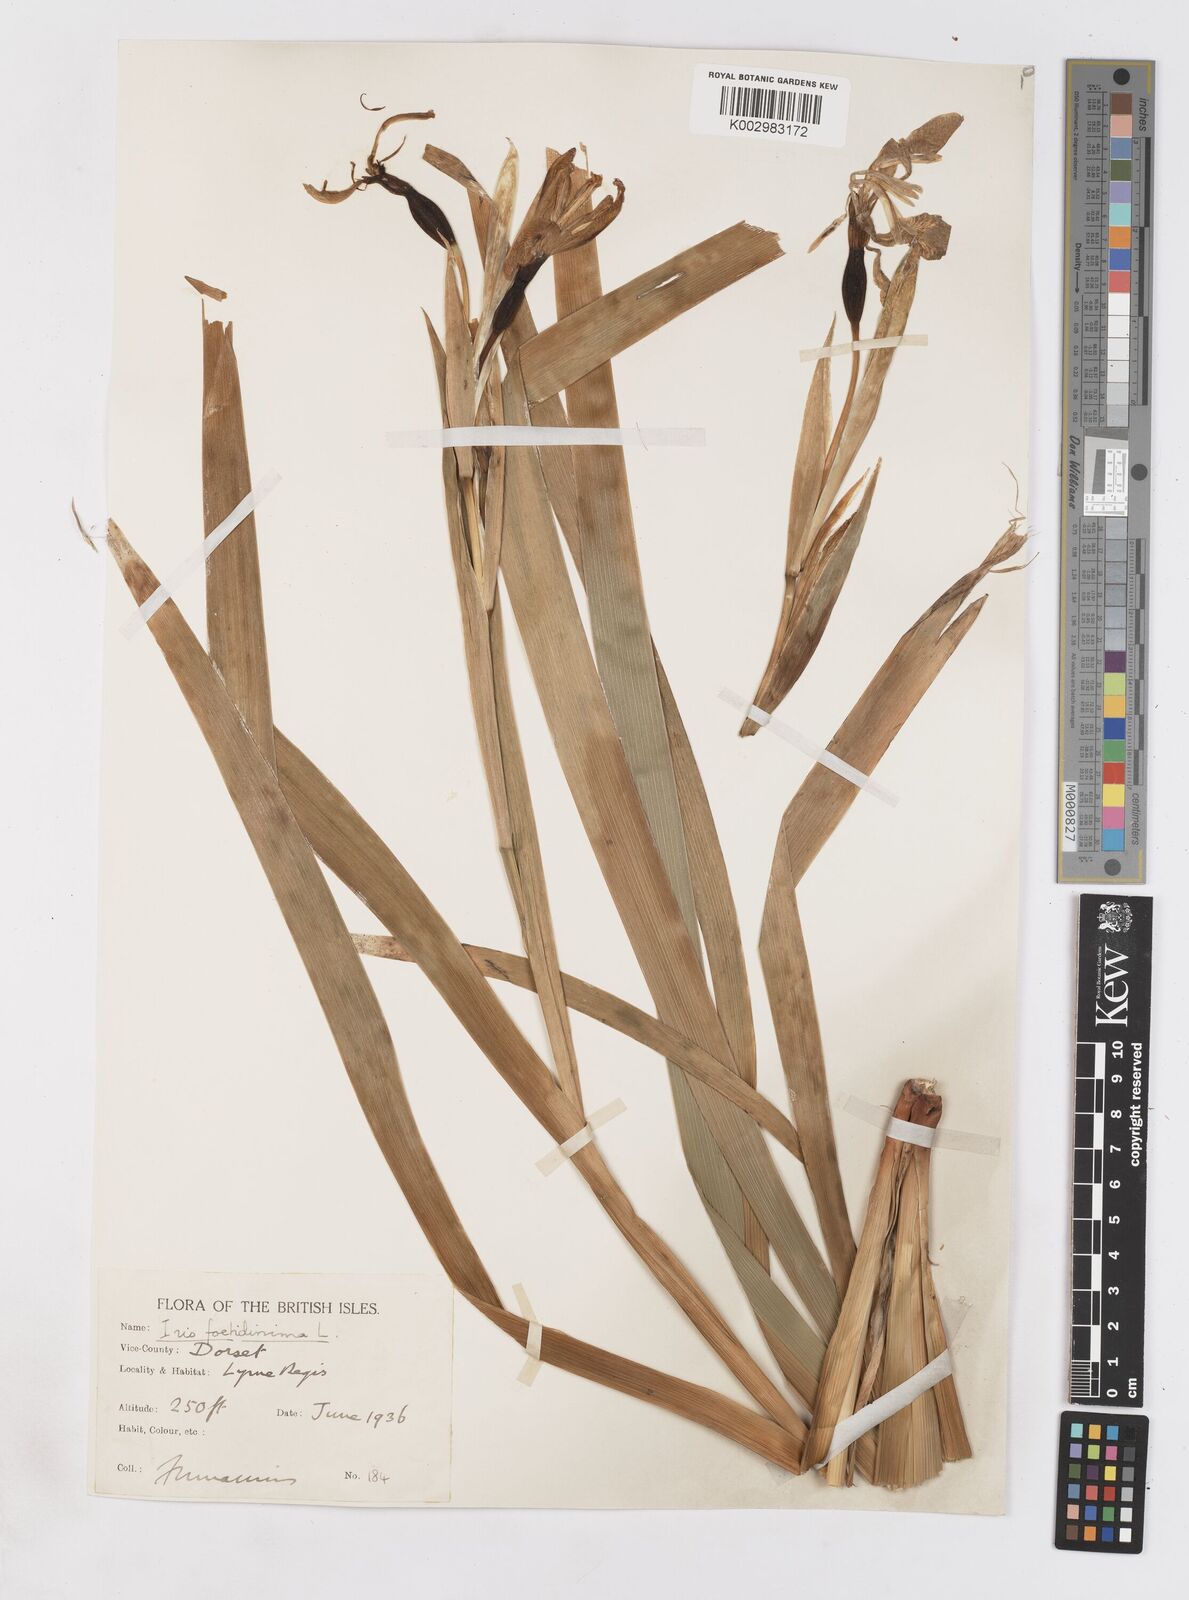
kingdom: Plantae
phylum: Tracheophyta
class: Liliopsida
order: Asparagales
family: Iridaceae
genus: Iris
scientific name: Iris foetidissima
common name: Stinking iris
